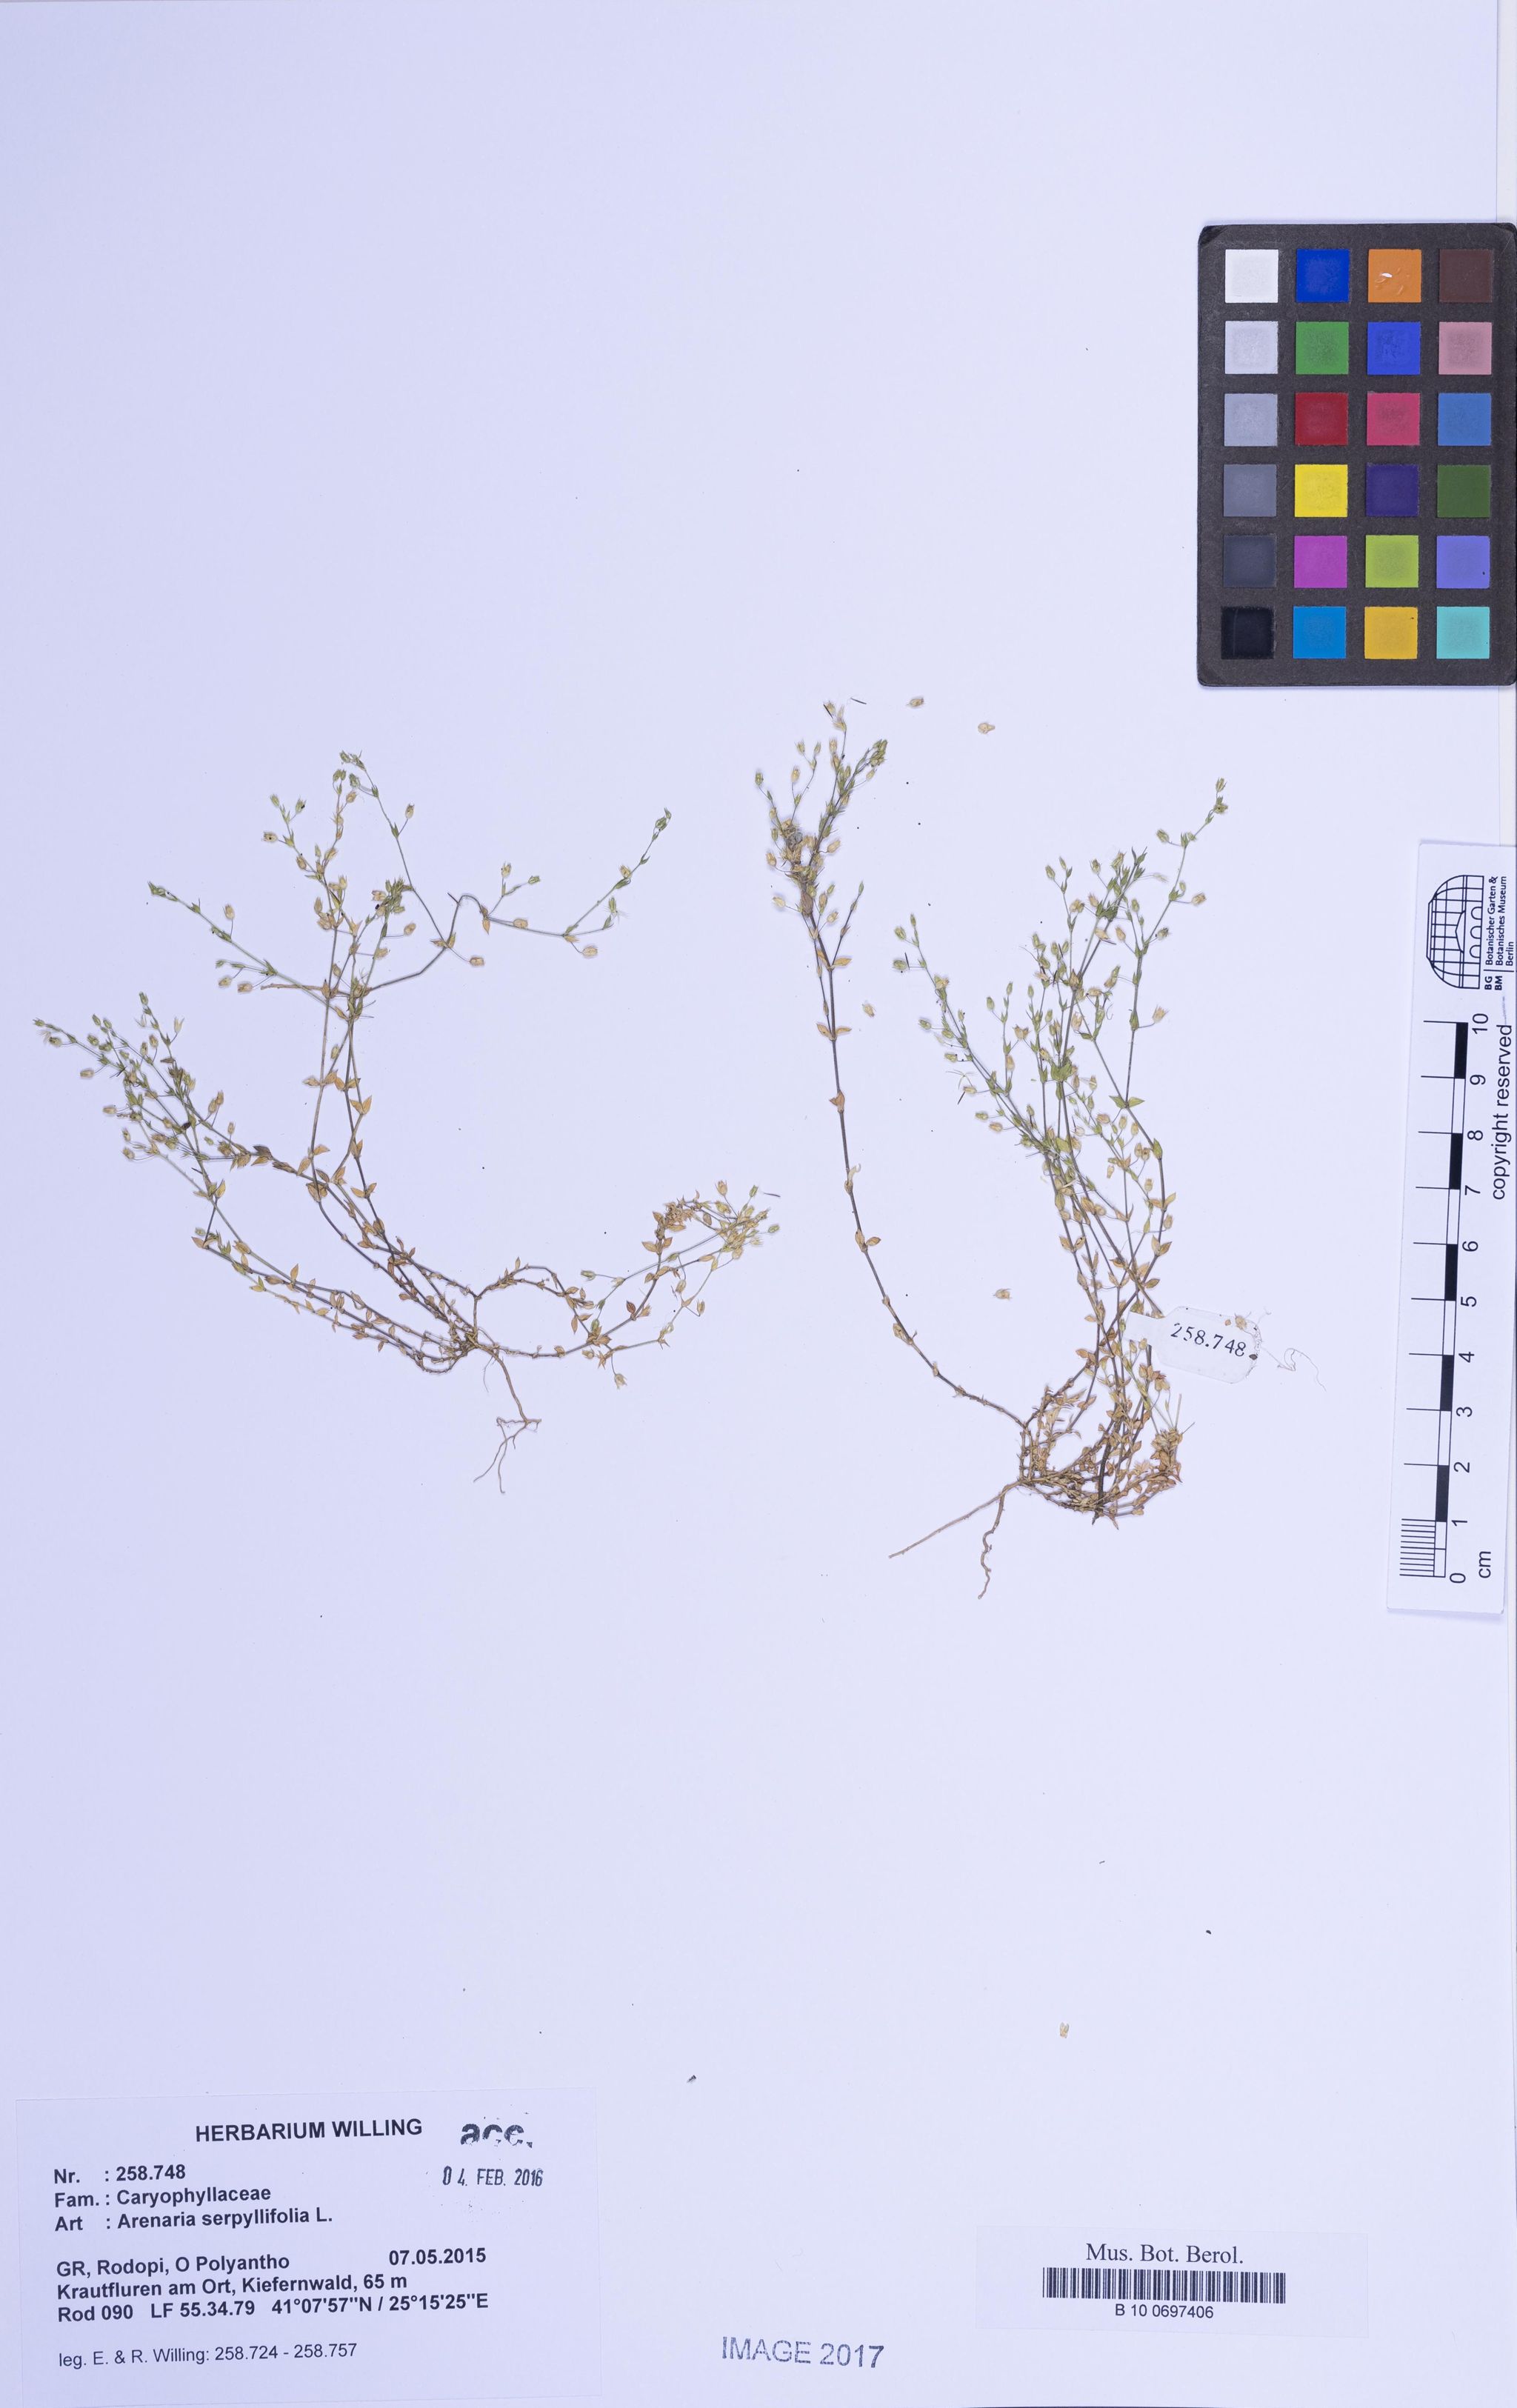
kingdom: Plantae
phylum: Tracheophyta
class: Magnoliopsida
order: Caryophyllales
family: Caryophyllaceae
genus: Arenaria
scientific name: Arenaria serpyllifolia
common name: Thyme-leaved sandwort
